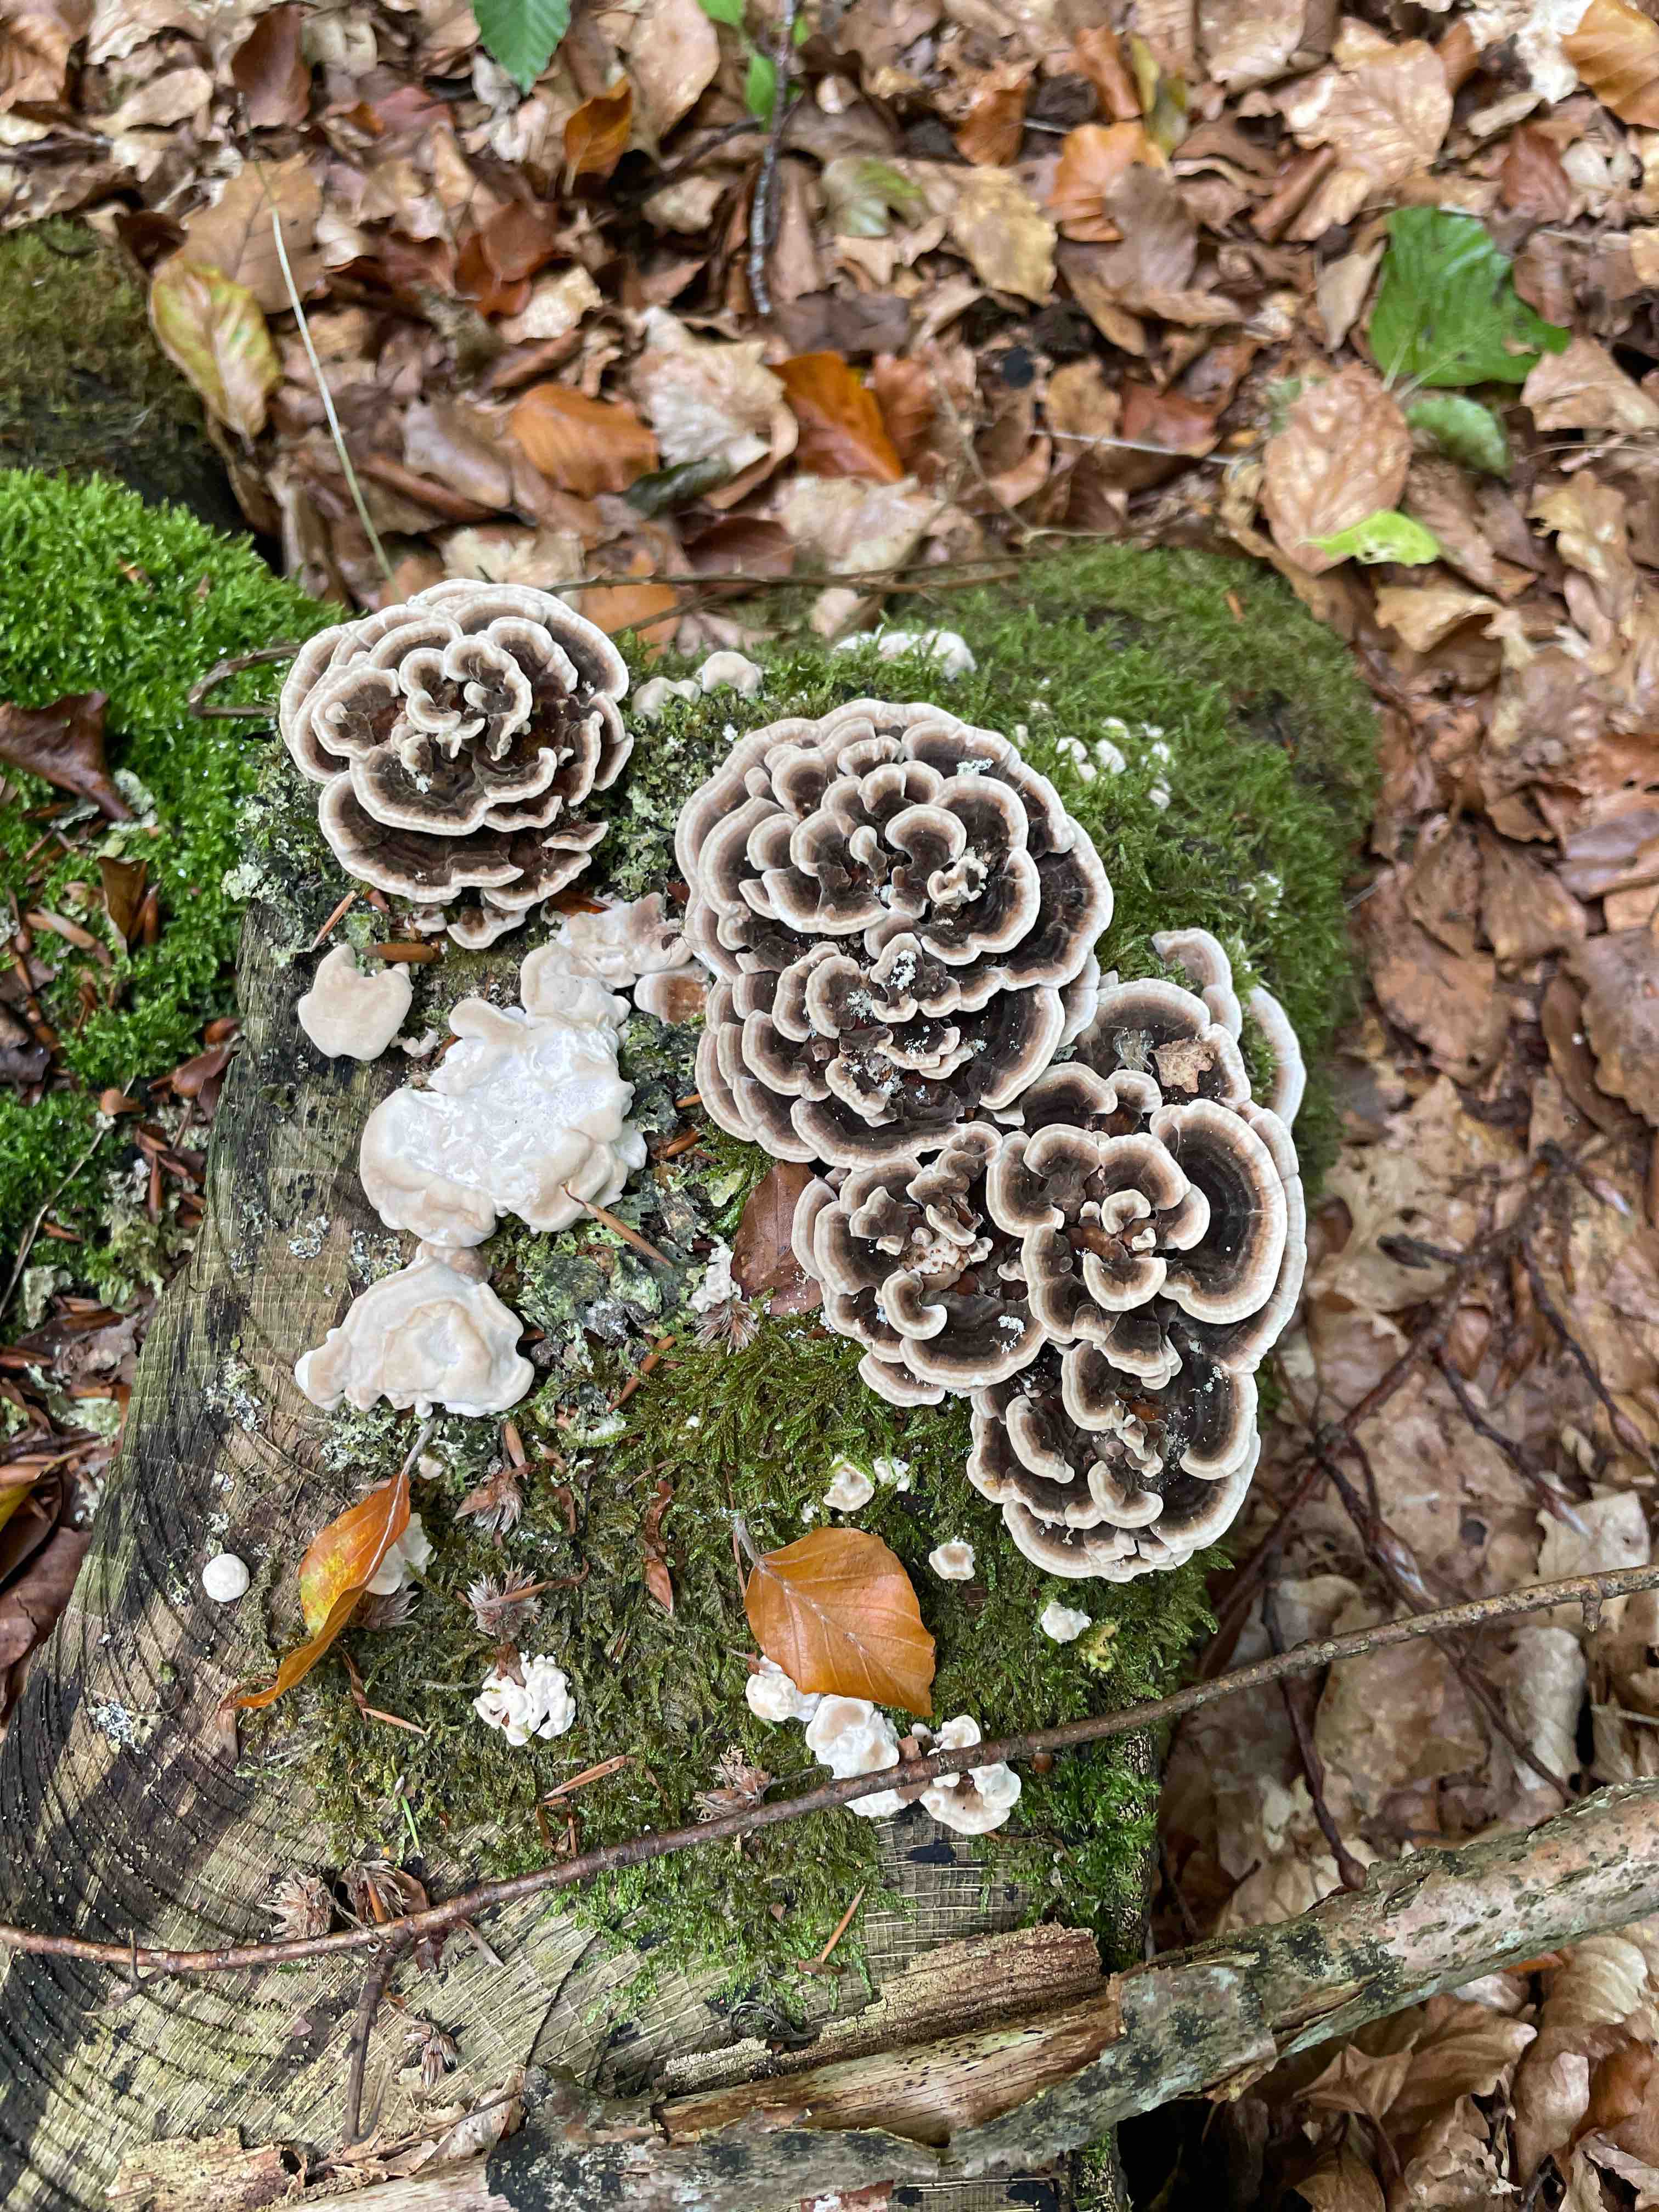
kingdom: Fungi
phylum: Basidiomycota
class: Agaricomycetes
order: Polyporales
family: Polyporaceae
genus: Trametes
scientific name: Trametes versicolor
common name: broget læderporesvamp
